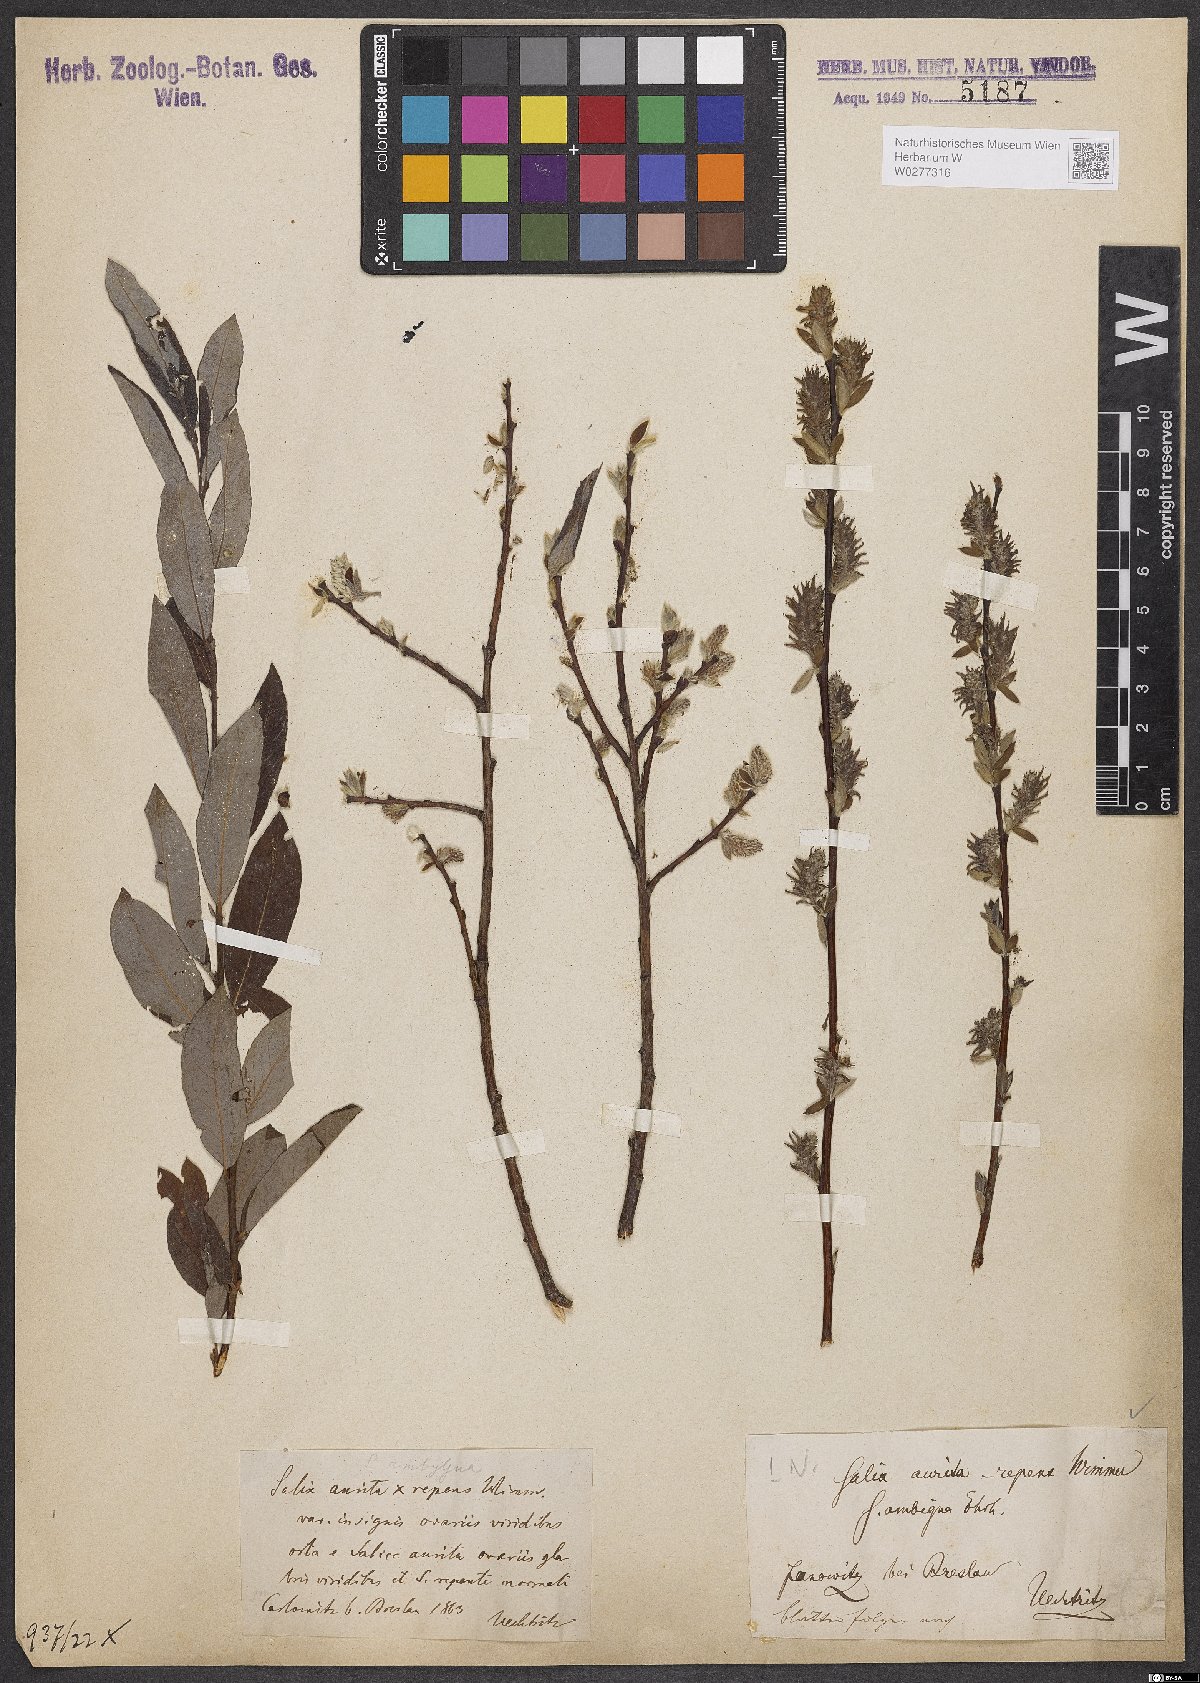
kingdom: Plantae
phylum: Tracheophyta
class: Magnoliopsida
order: Malpighiales
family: Salicaceae
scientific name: Salicaceae
